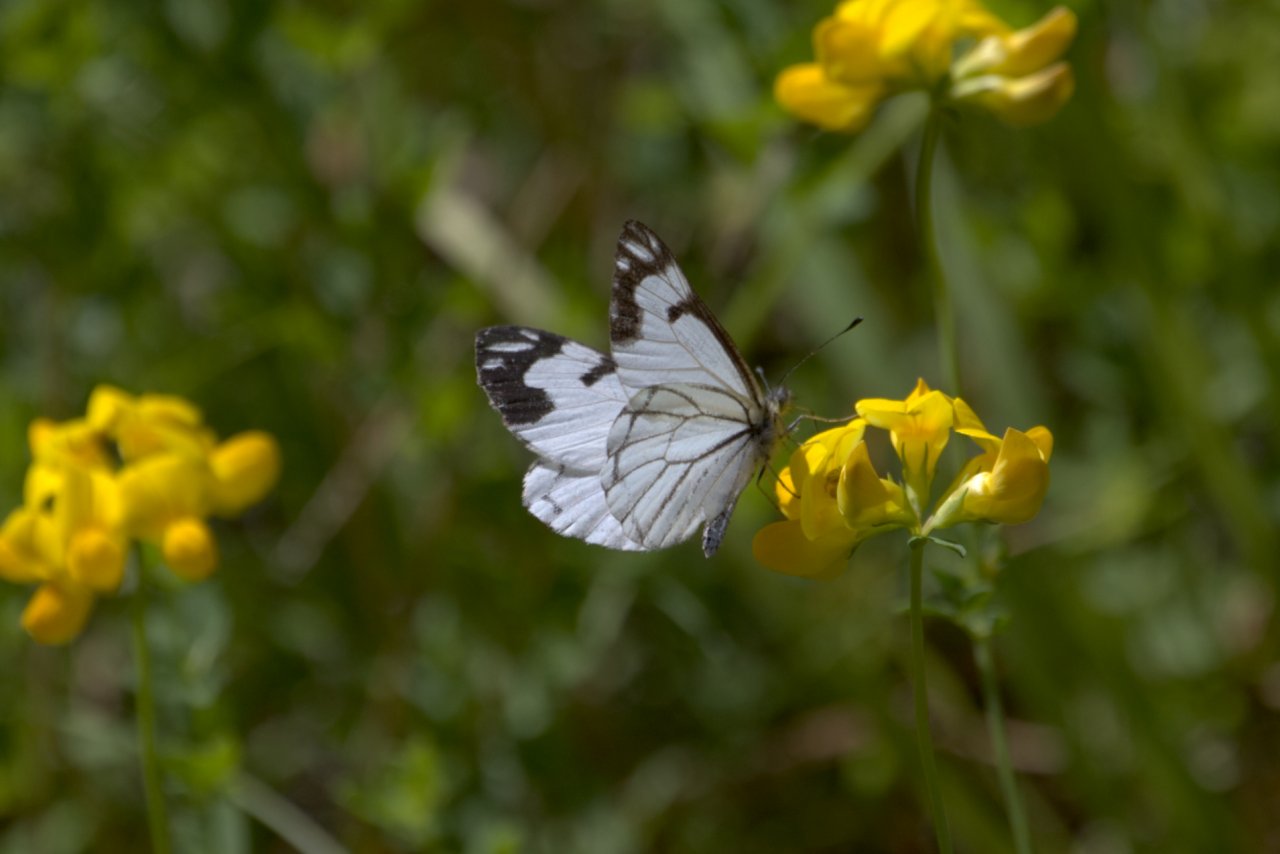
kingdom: Animalia
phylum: Arthropoda
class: Insecta
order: Lepidoptera
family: Pieridae
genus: Neophasia
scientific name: Neophasia menapia
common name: Pine White
